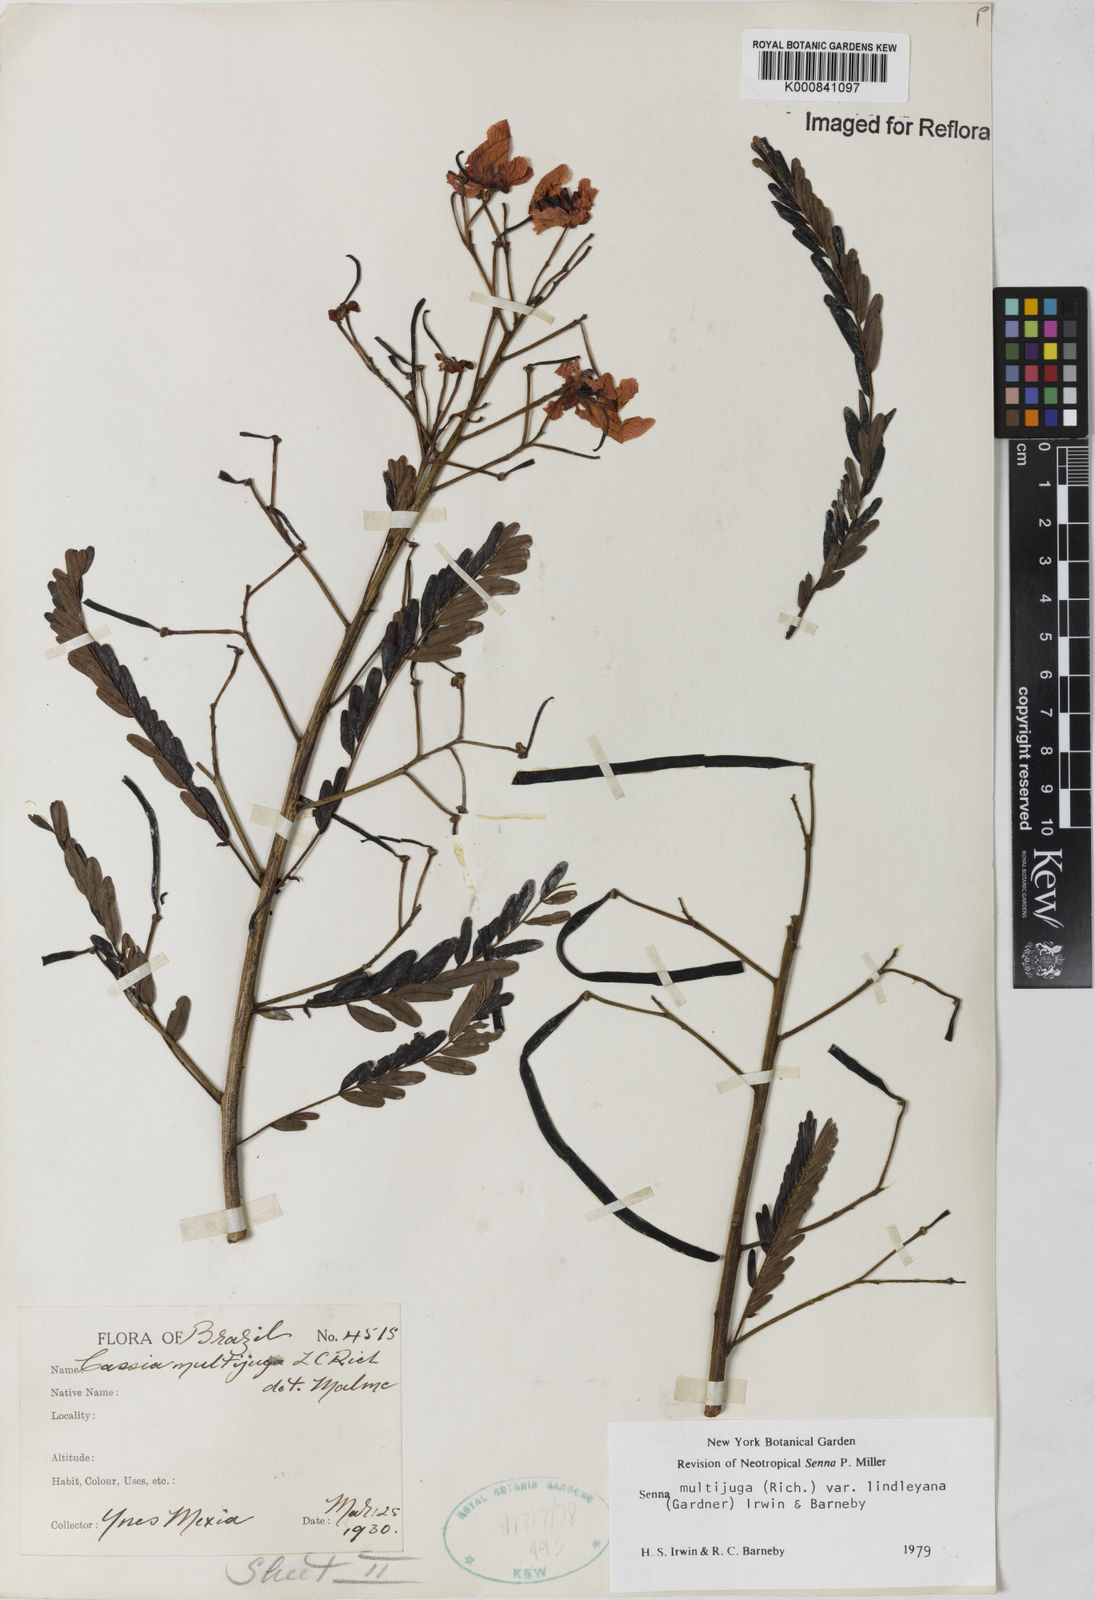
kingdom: Plantae
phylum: Tracheophyta
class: Magnoliopsida
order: Fabales
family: Fabaceae
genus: Senna
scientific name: Senna multijuga
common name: False sicklepod
